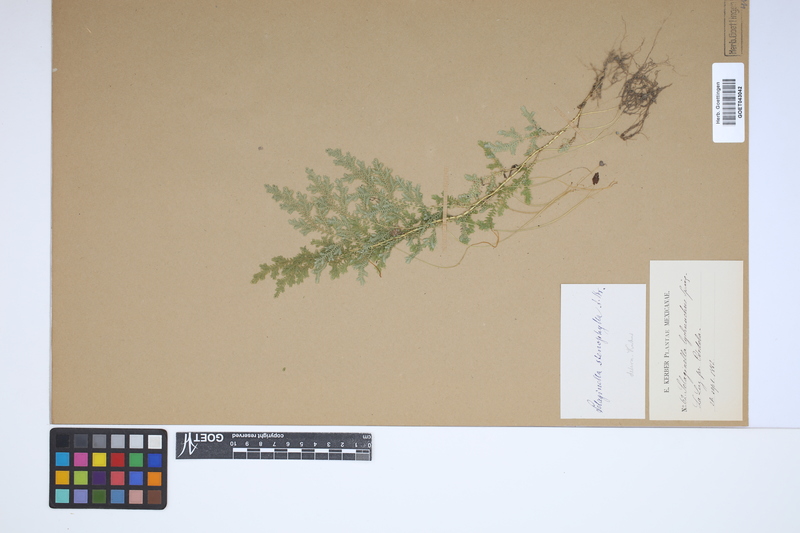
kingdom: Plantae
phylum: Tracheophyta
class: Lycopodiopsida
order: Selaginellales
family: Selaginellaceae
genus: Selaginella
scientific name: Selaginella stenophylla
